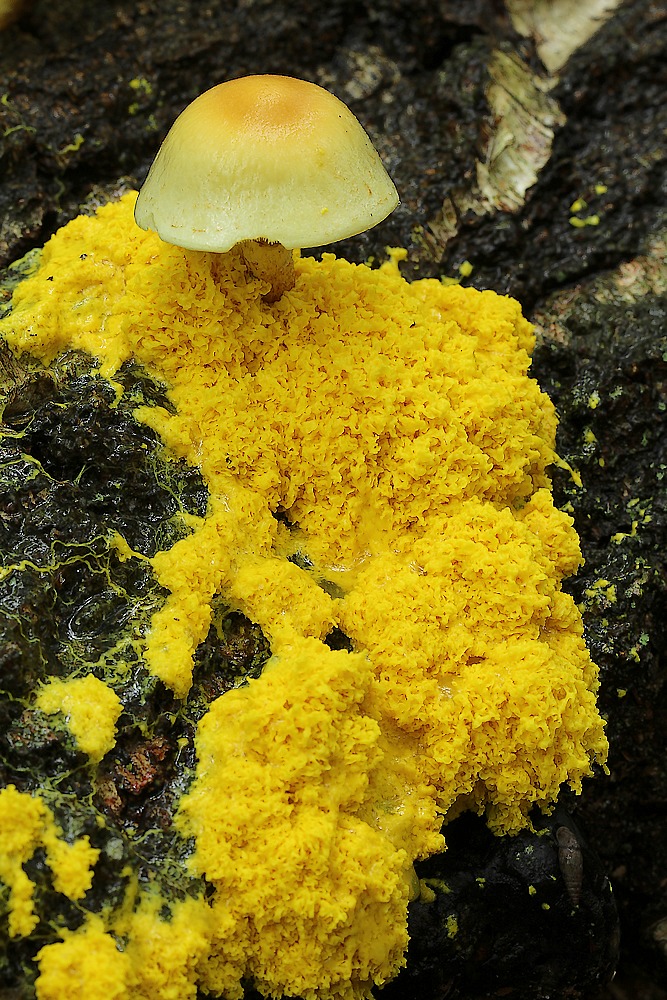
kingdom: Protozoa
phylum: Mycetozoa
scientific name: Mycetozoa
